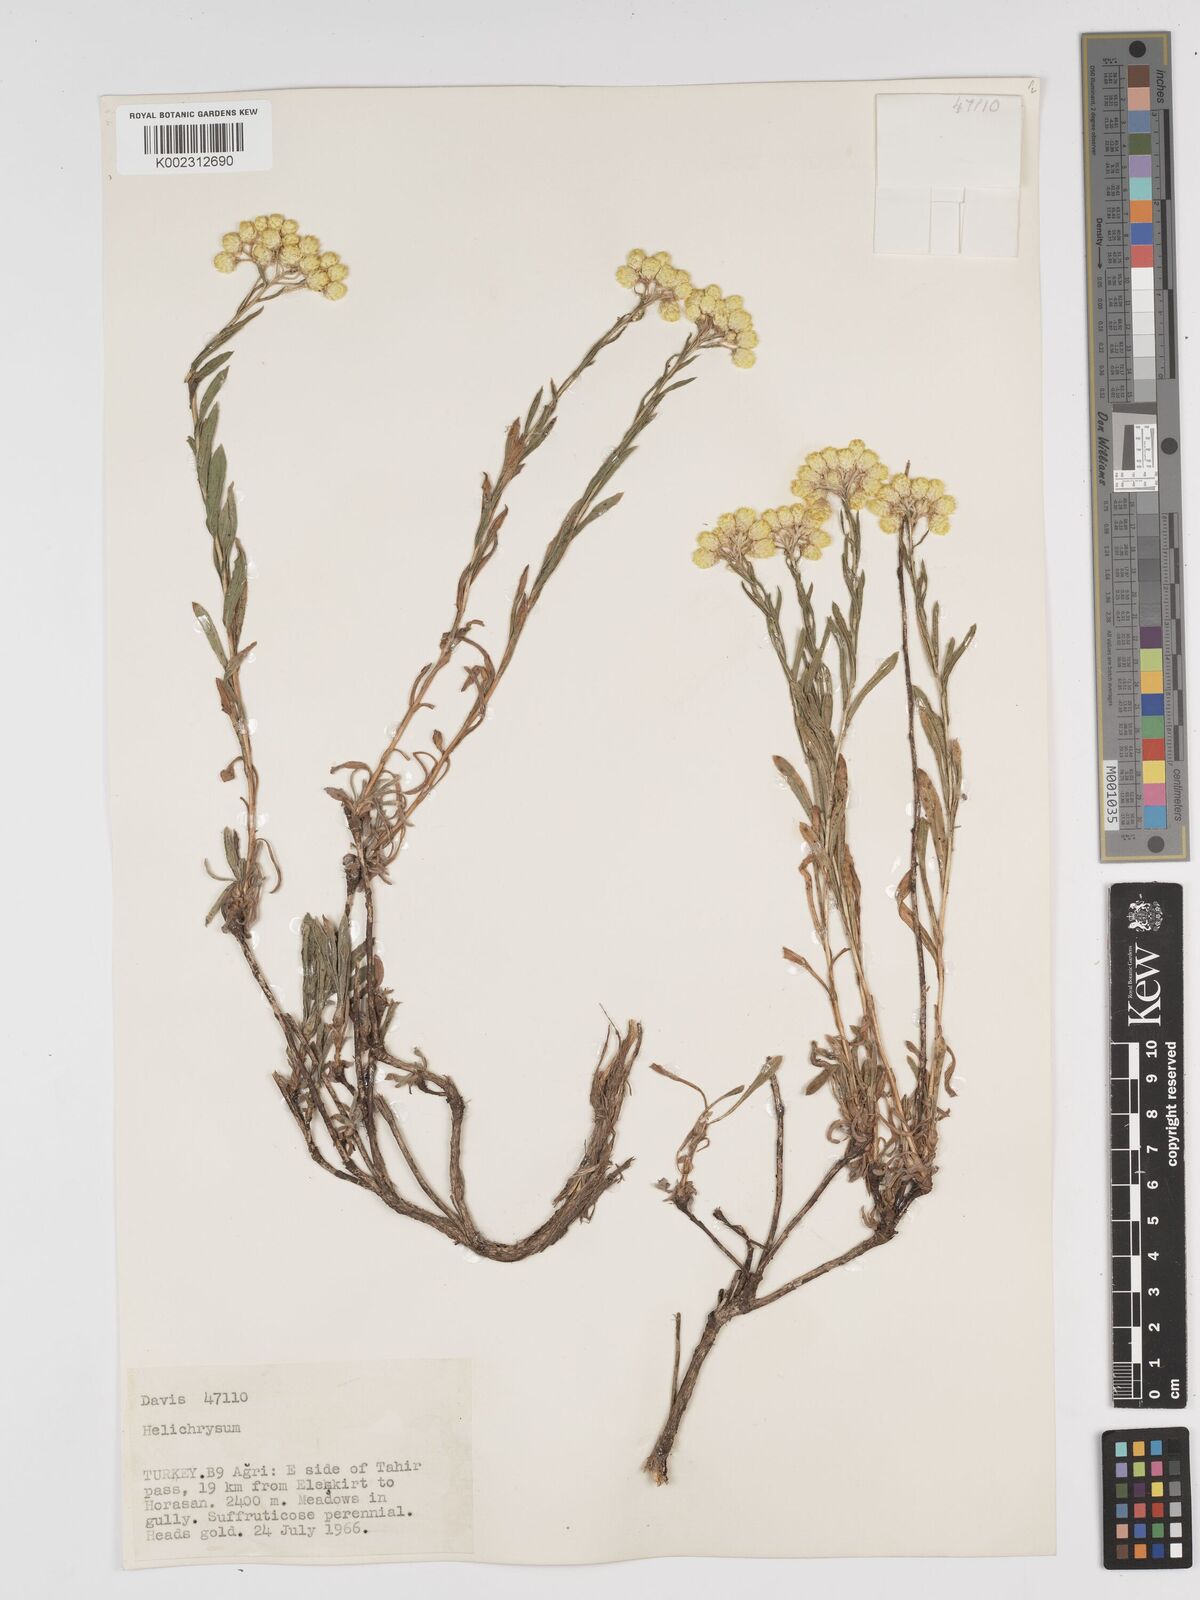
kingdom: Plantae
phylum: Tracheophyta
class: Magnoliopsida
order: Asterales
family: Asteraceae
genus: Helichrysum
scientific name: Helichrysum armenium
